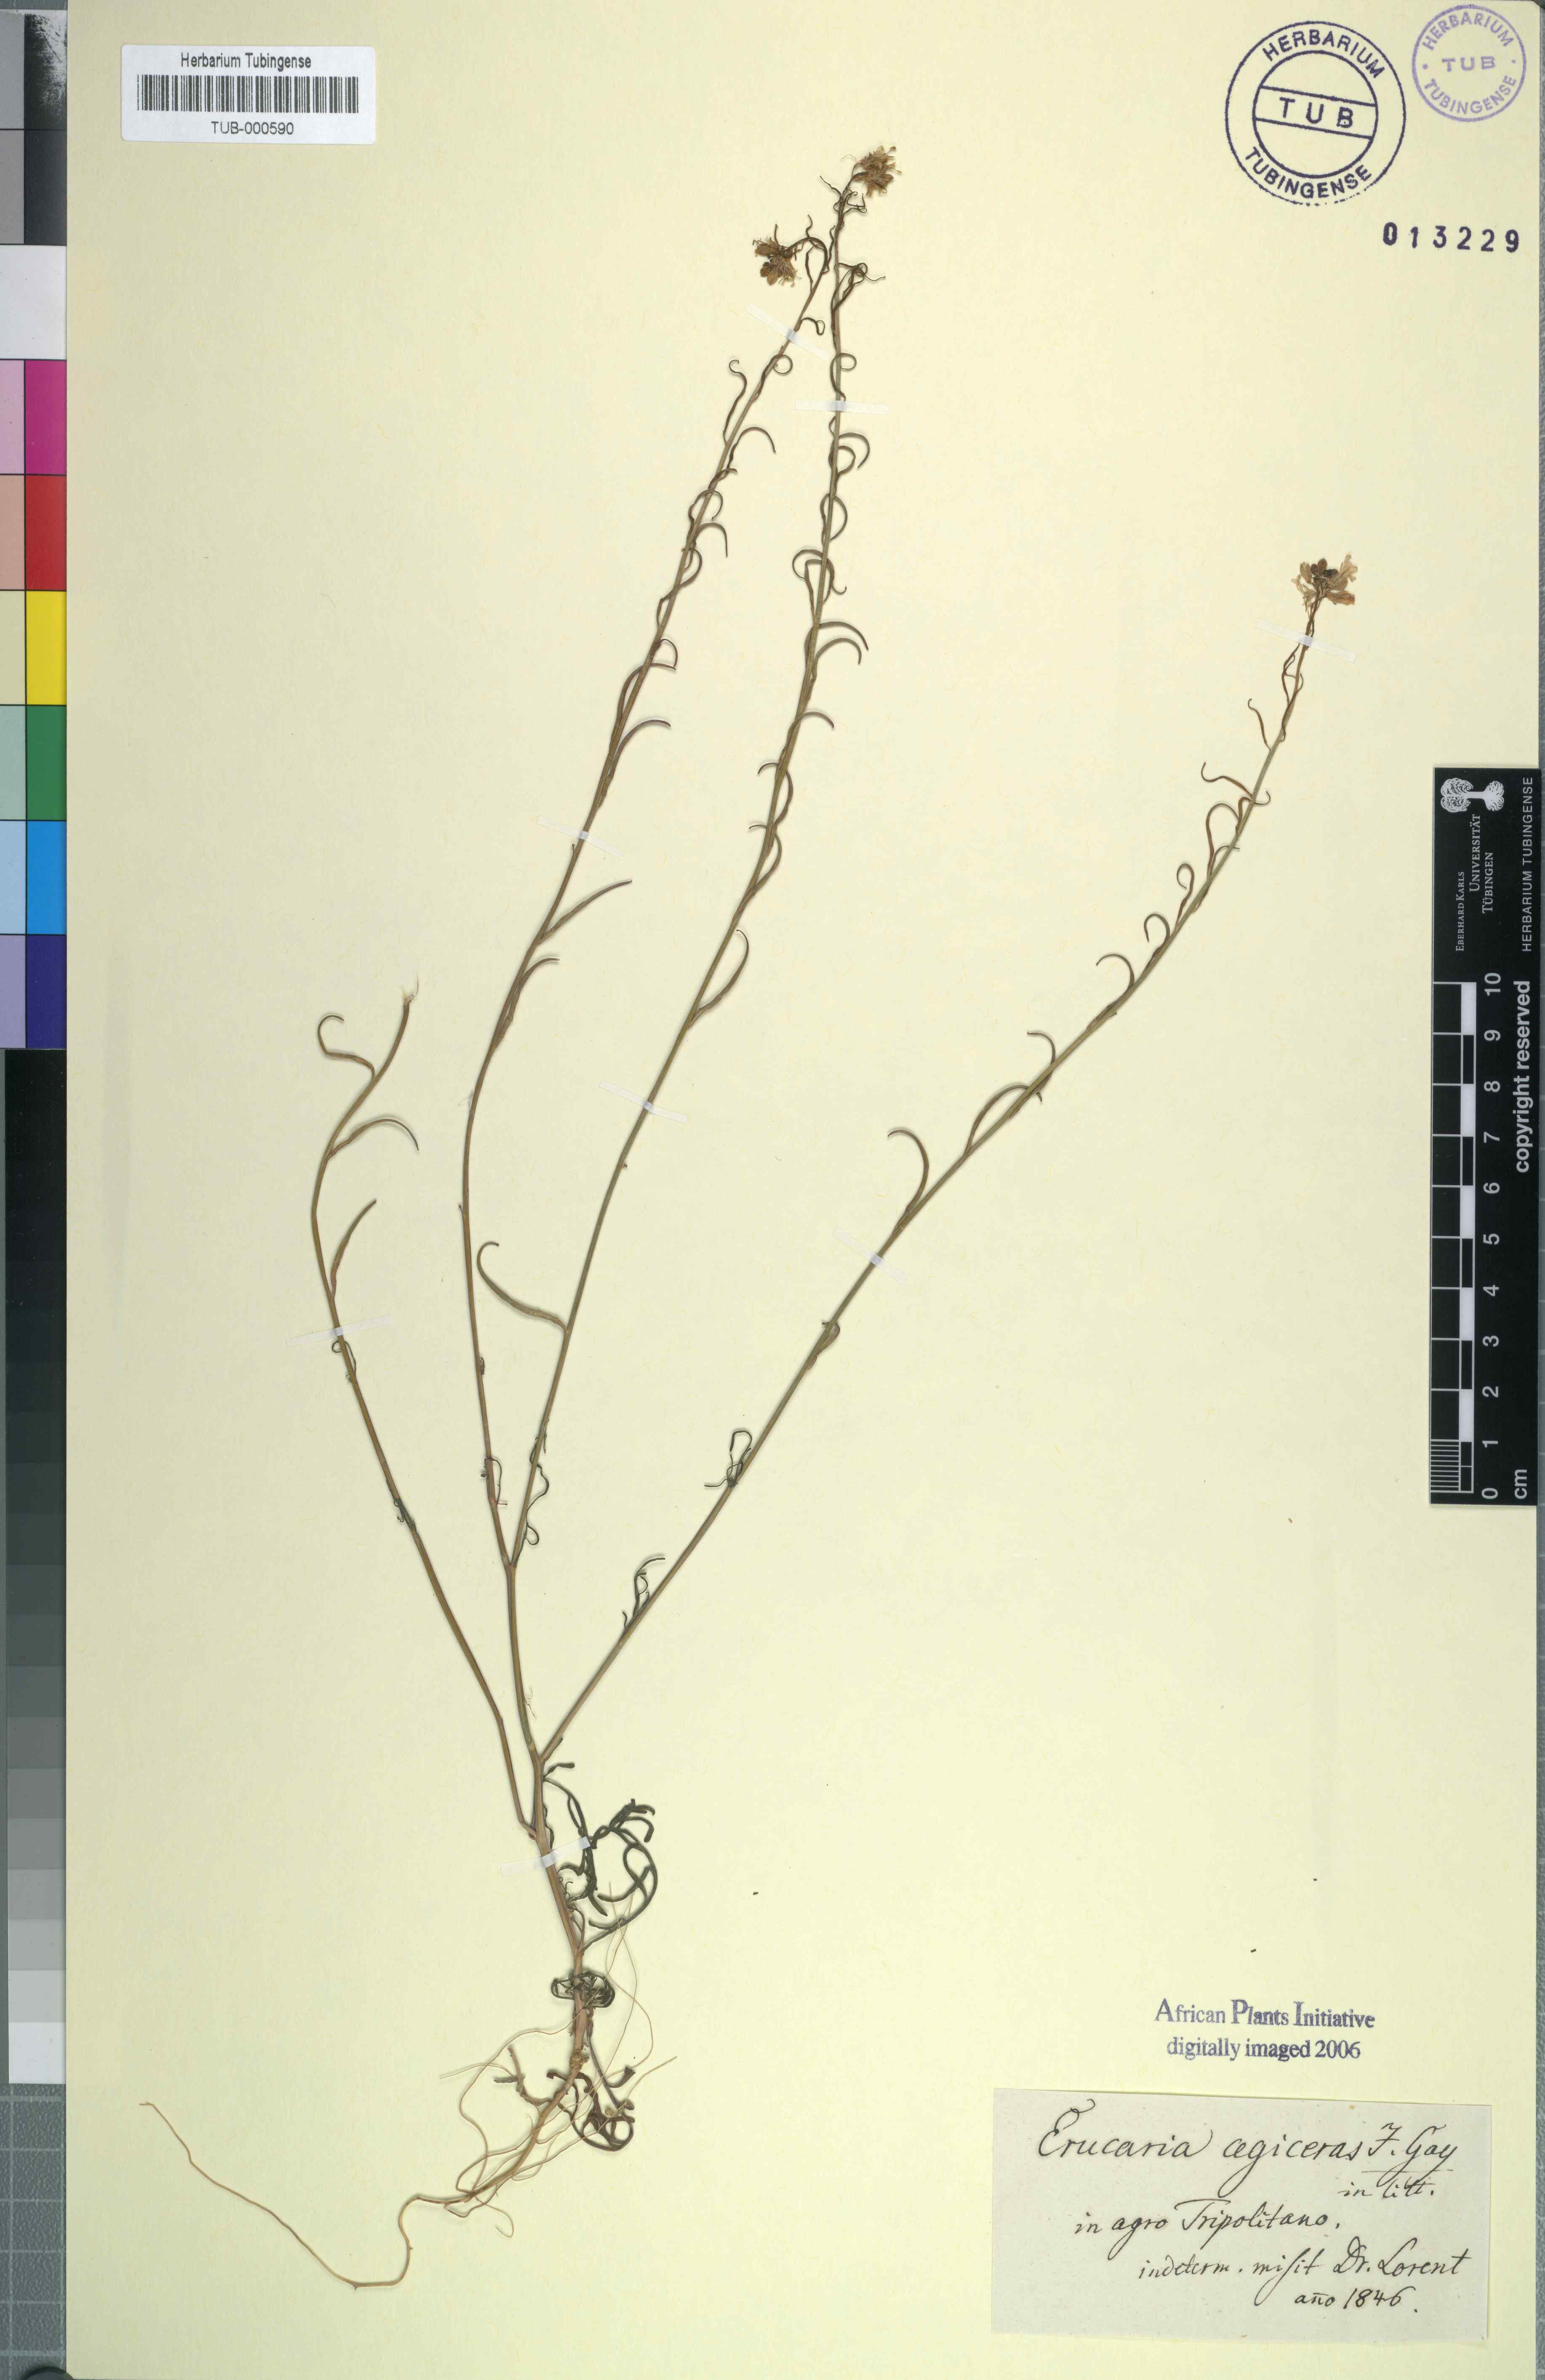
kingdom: Plantae
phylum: Tracheophyta
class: Magnoliopsida
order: Brassicales
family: Brassicaceae
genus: Erucaria
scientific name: Erucaria pinnata
